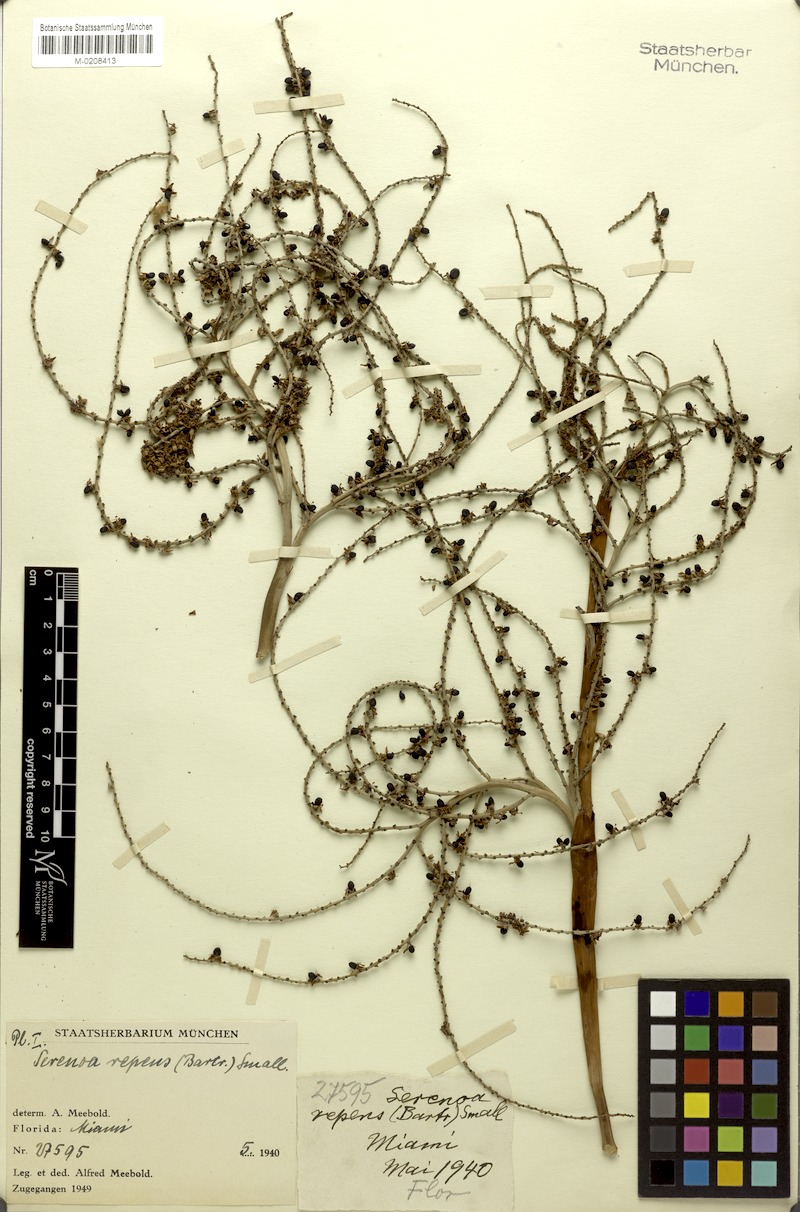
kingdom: Plantae
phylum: Tracheophyta
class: Liliopsida
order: Arecales
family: Arecaceae
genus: Serenoa
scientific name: Serenoa repens
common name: Saw-palmetto
